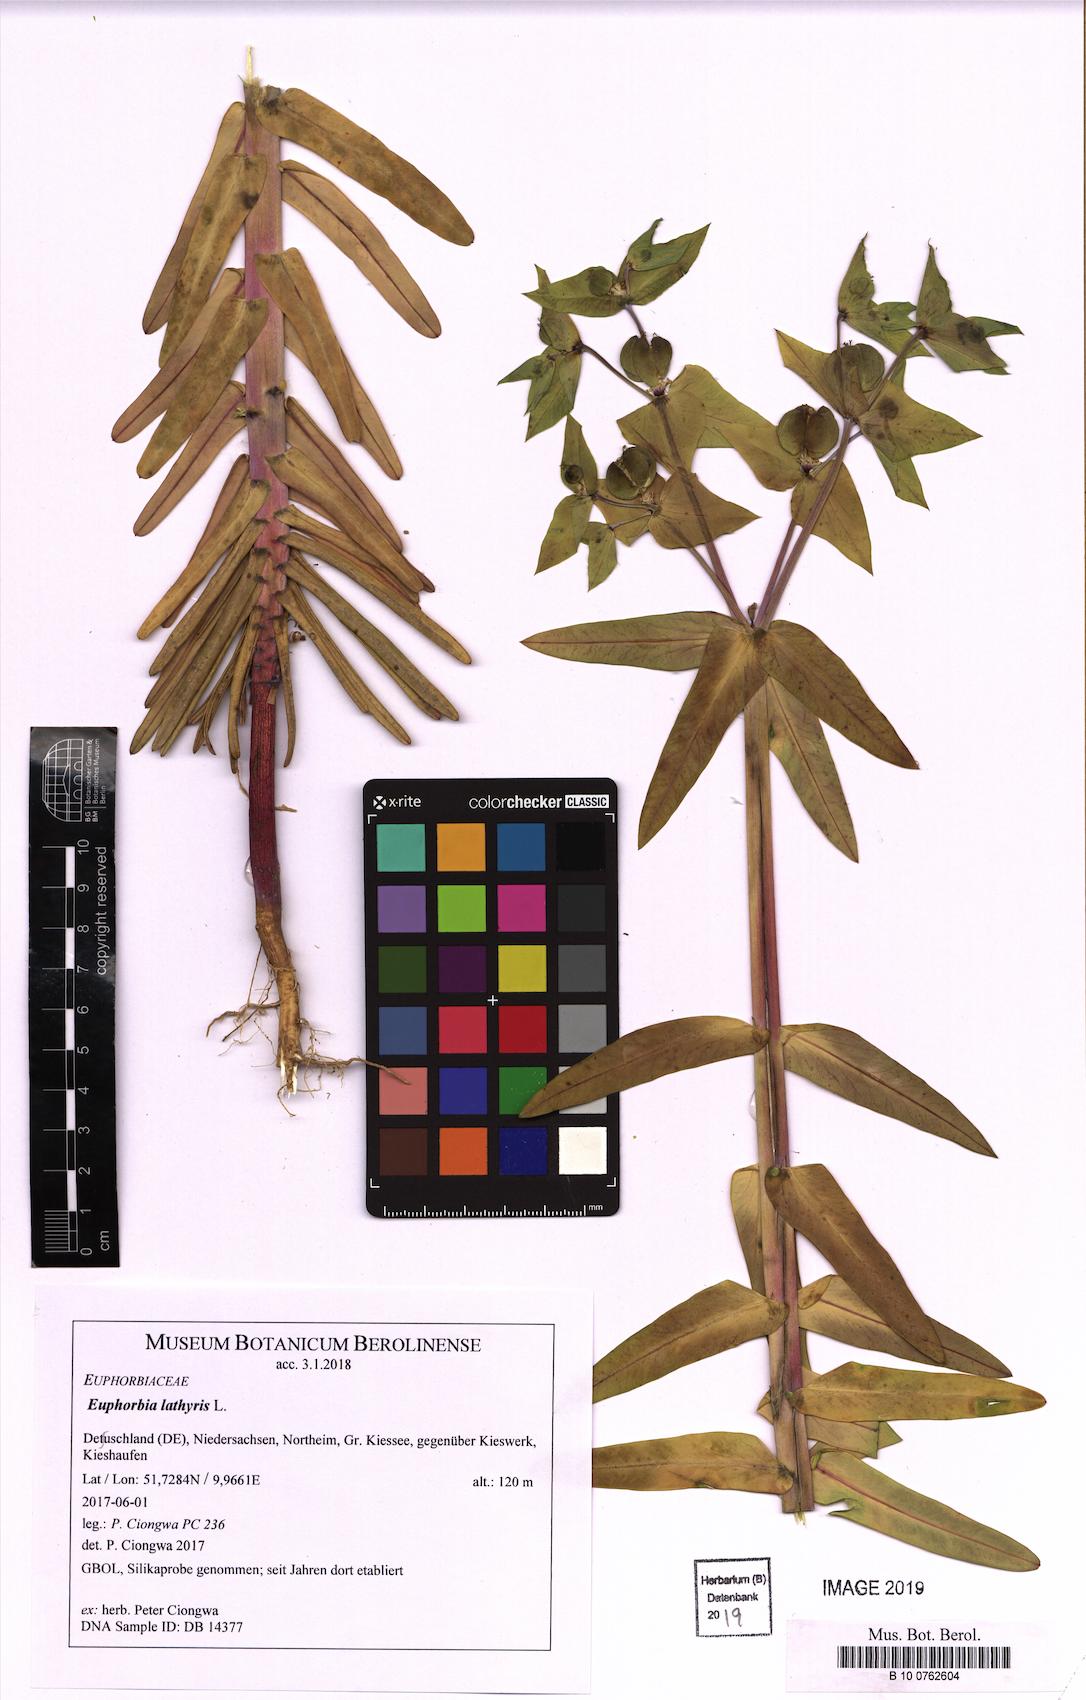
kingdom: Plantae
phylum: Tracheophyta
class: Magnoliopsida
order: Malpighiales
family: Euphorbiaceae
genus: Euphorbia
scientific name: Euphorbia lathyris
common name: Caper spurge
